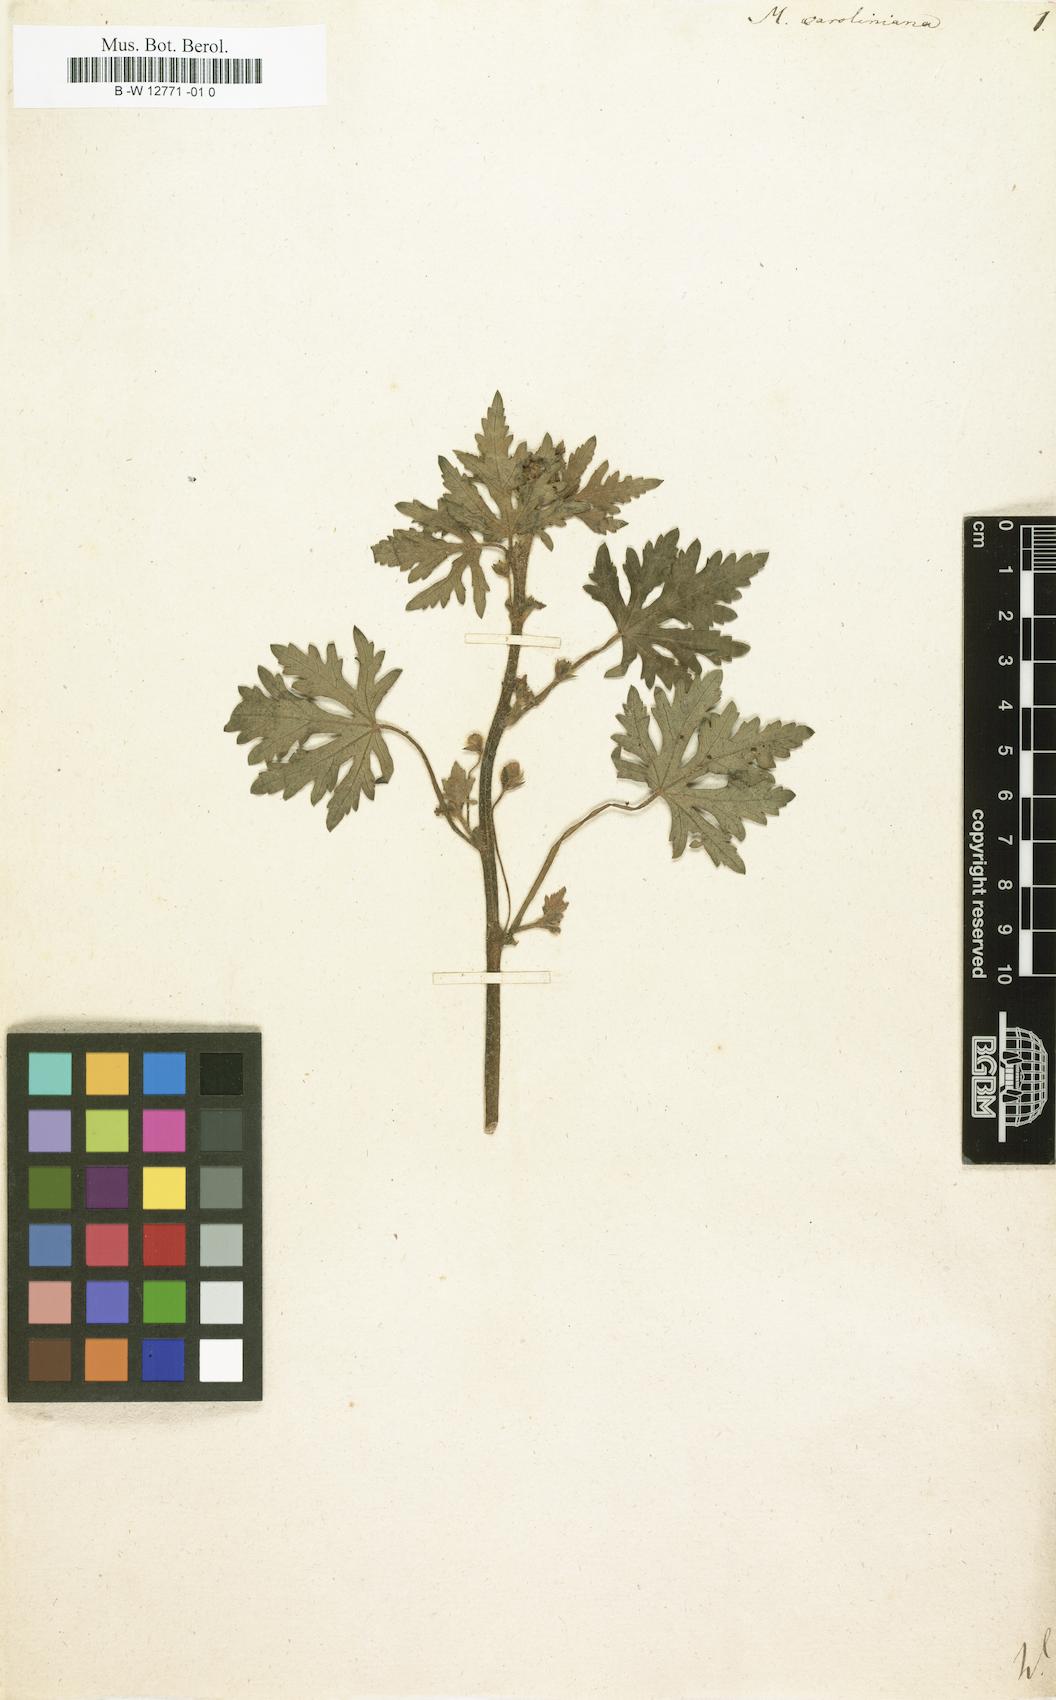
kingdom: Plantae
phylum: Tracheophyta
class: Magnoliopsida
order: Malvales
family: Malvaceae
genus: Modiola
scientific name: Modiola caroliniana
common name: Carolina bristlemallow
